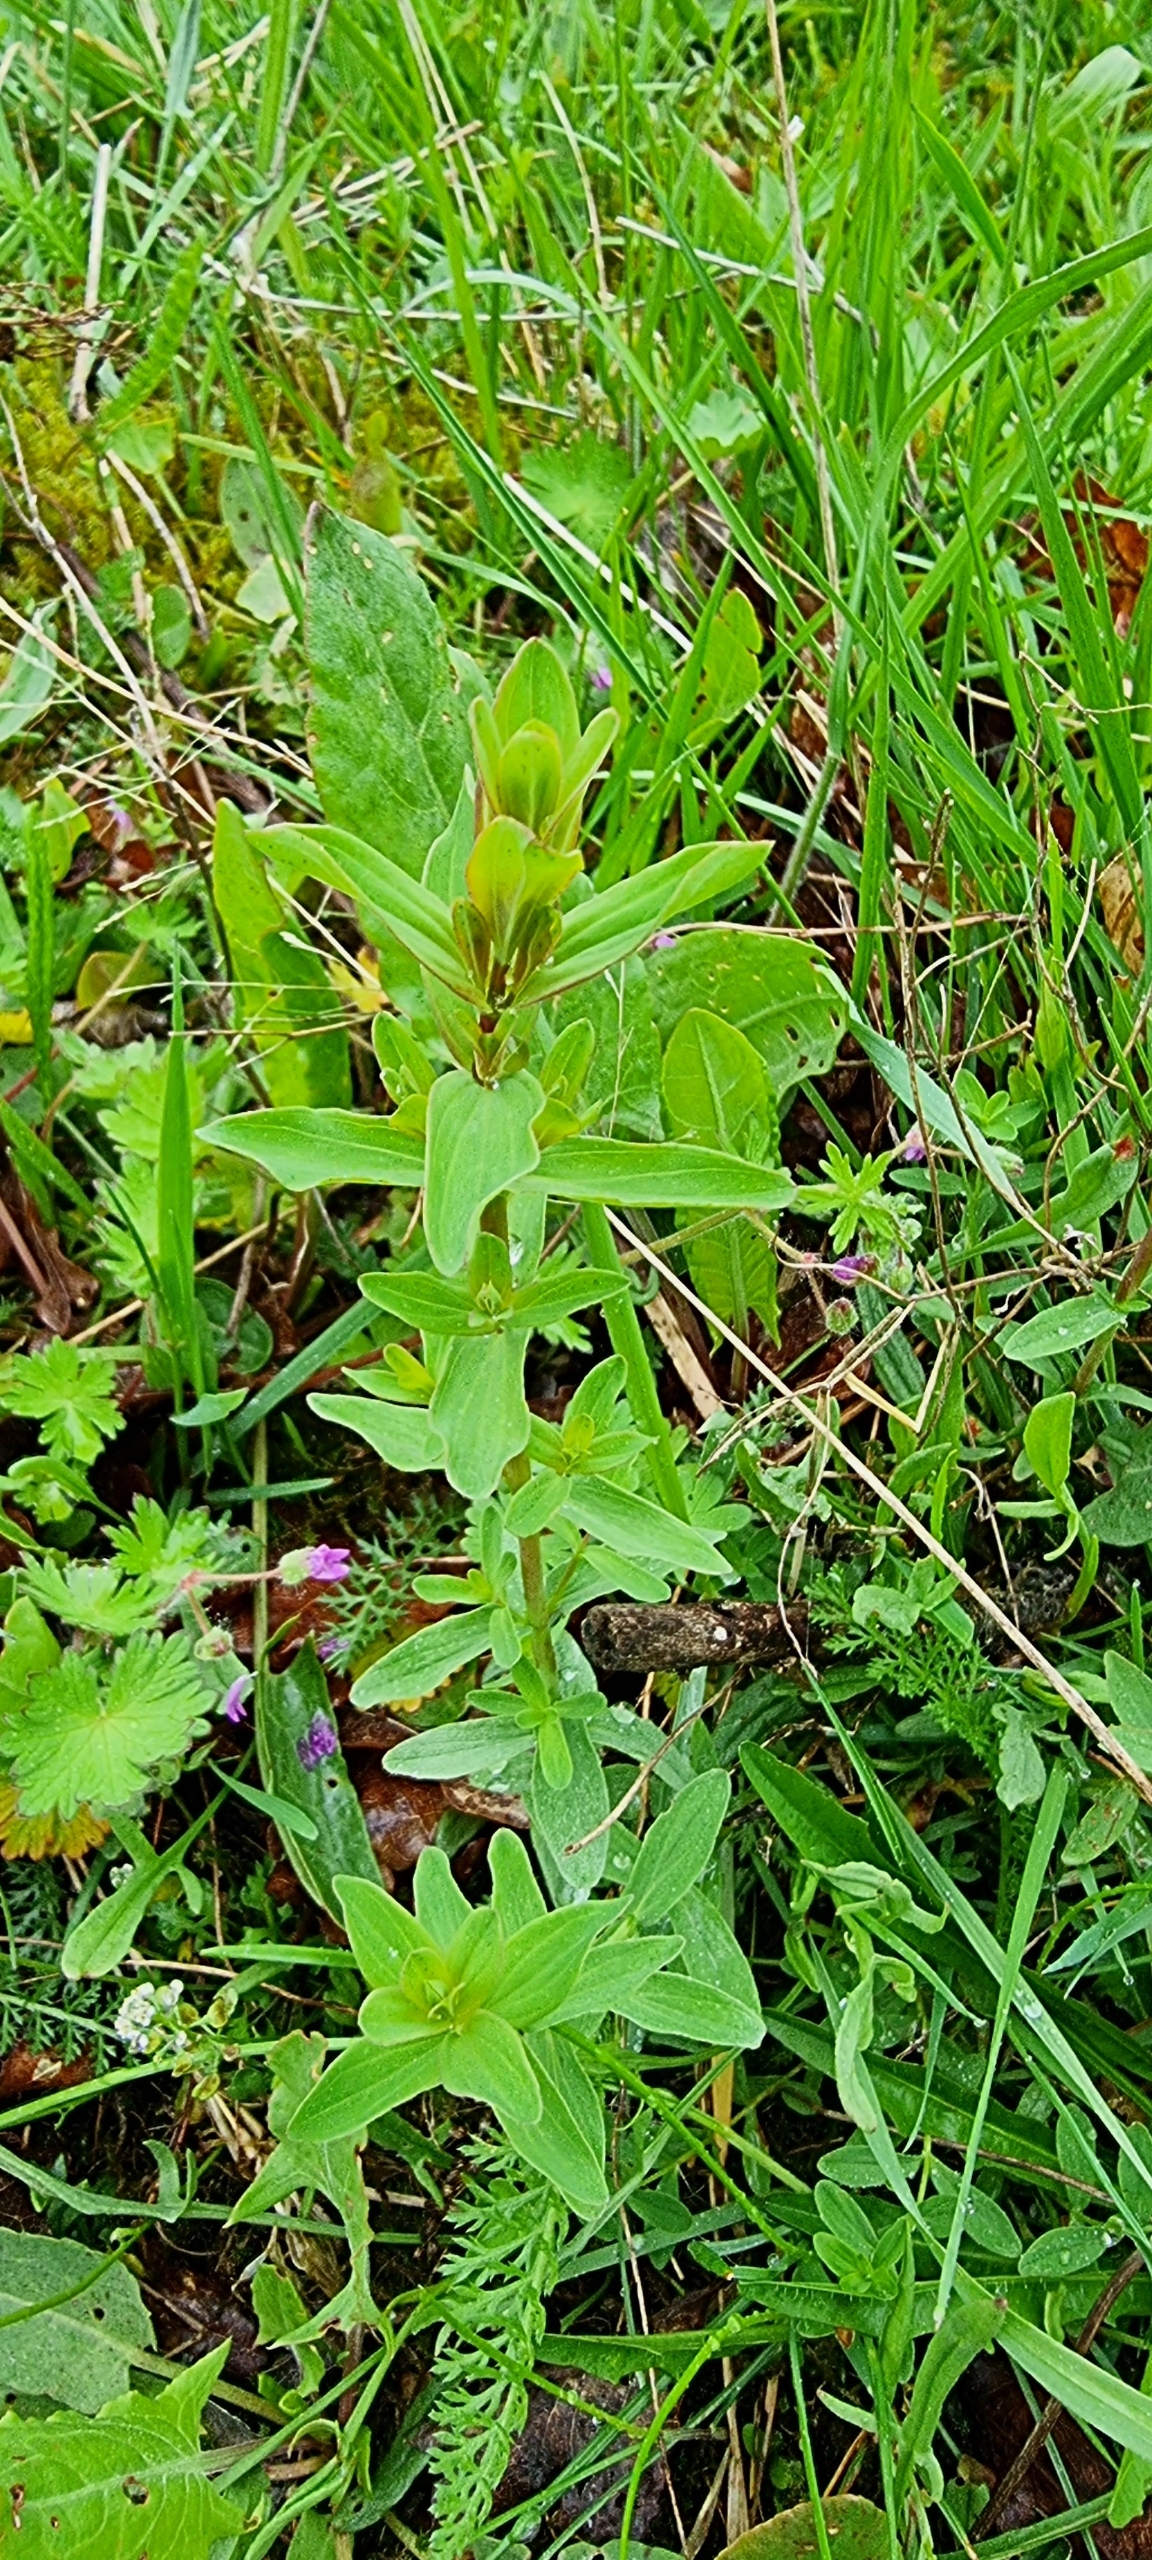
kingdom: Plantae
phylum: Tracheophyta
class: Magnoliopsida
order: Malpighiales
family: Hypericaceae
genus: Hypericum
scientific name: Hypericum perforatum
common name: Prikbladet perikon
